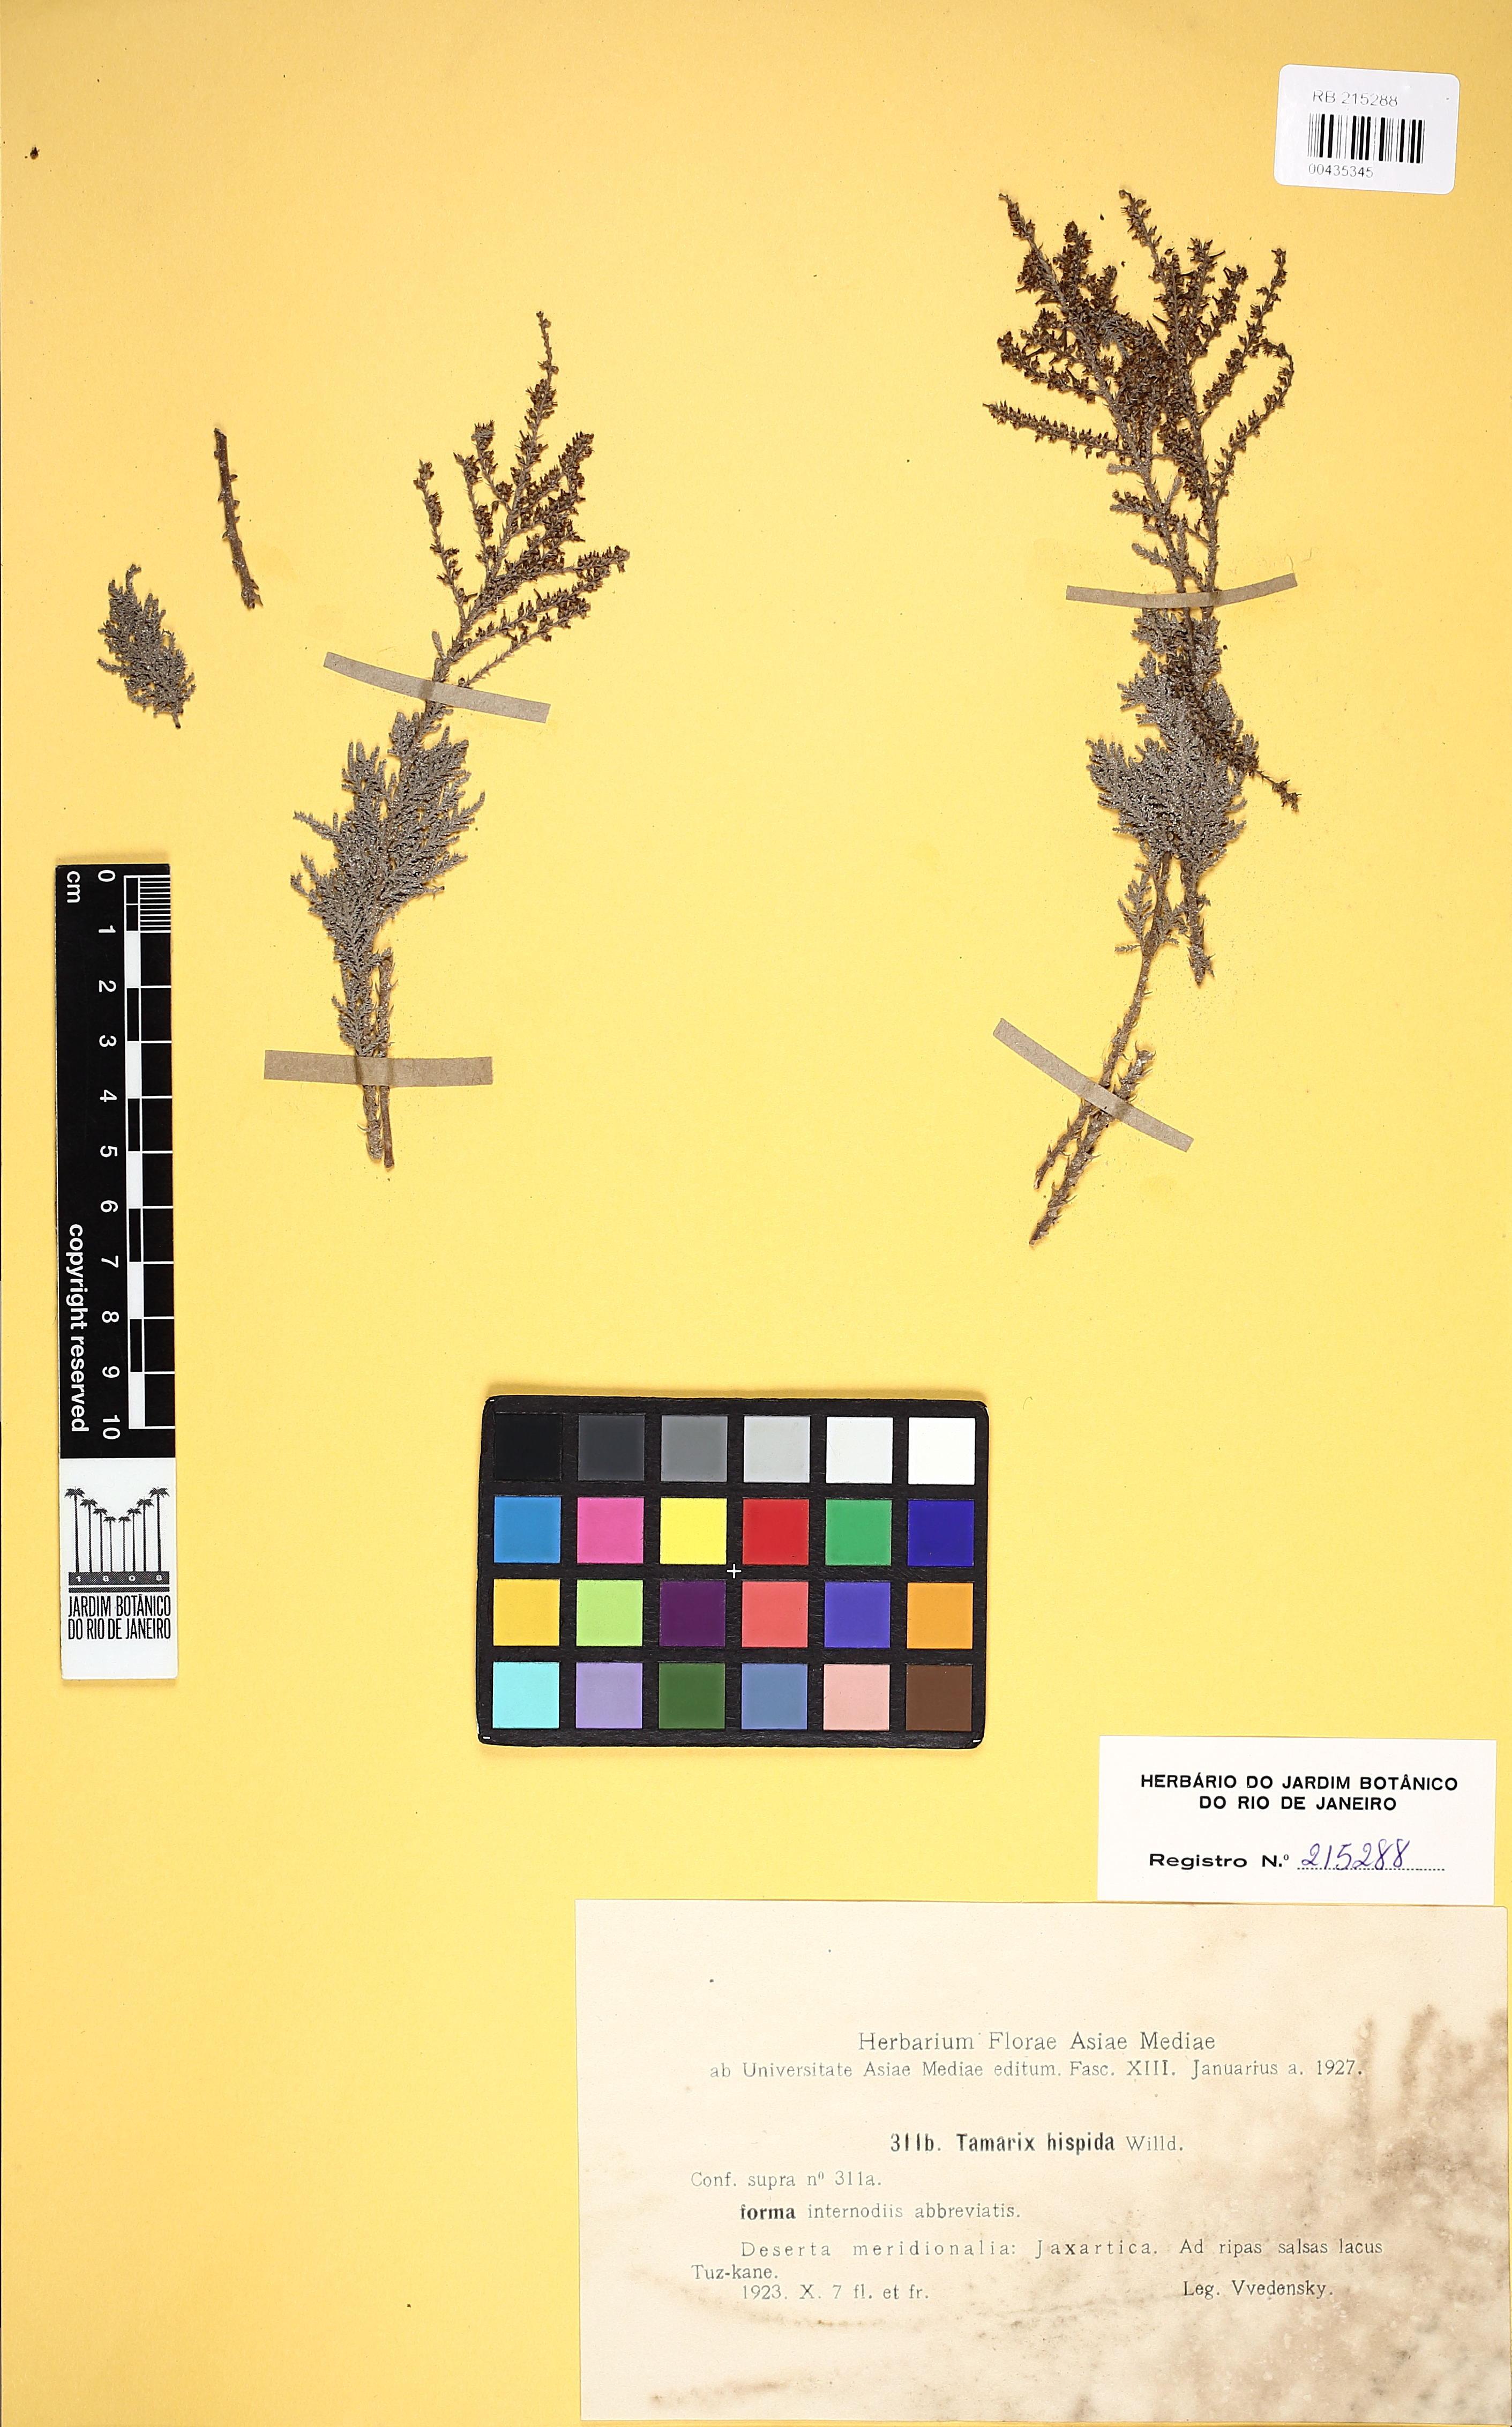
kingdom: Plantae
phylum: Tracheophyta
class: Magnoliopsida
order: Caryophyllales
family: Tamaricaceae
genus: Tamarix
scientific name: Tamarix hispida
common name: Kashgar tamarisk
